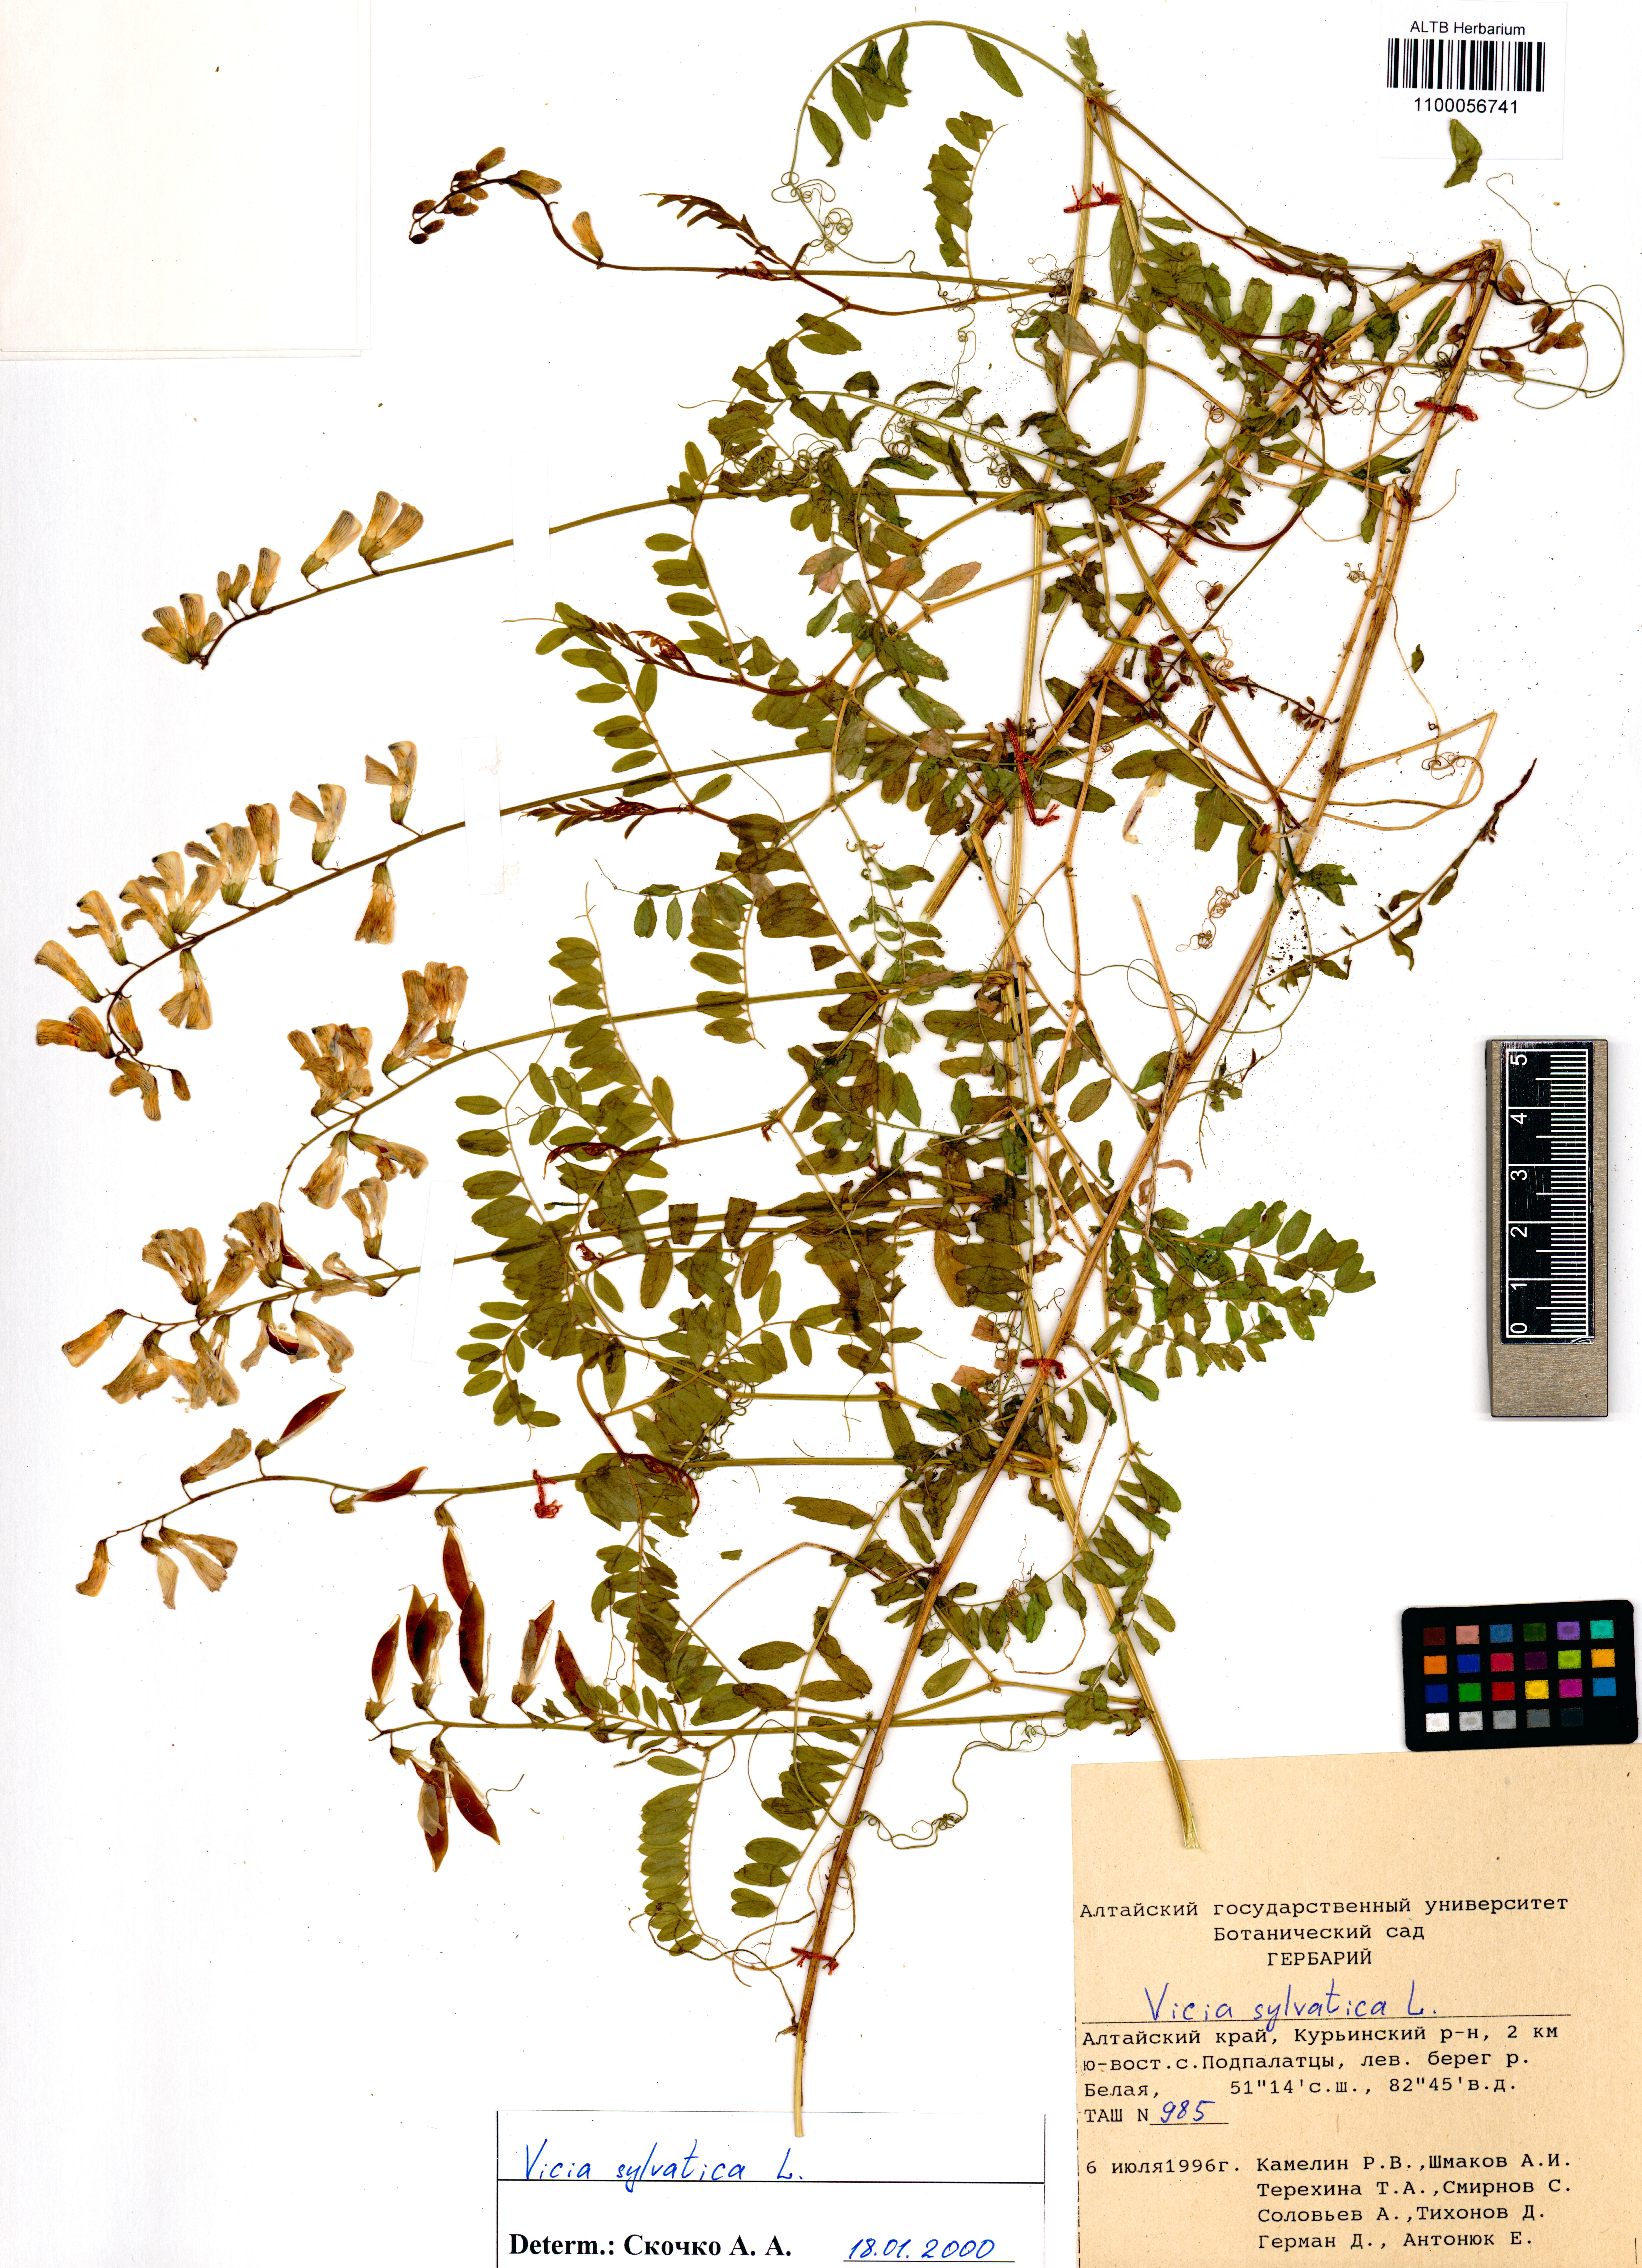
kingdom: Plantae
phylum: Tracheophyta
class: Magnoliopsida
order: Fabales
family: Fabaceae
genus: Vicia
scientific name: Vicia sylvatica
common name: Wood vetch
